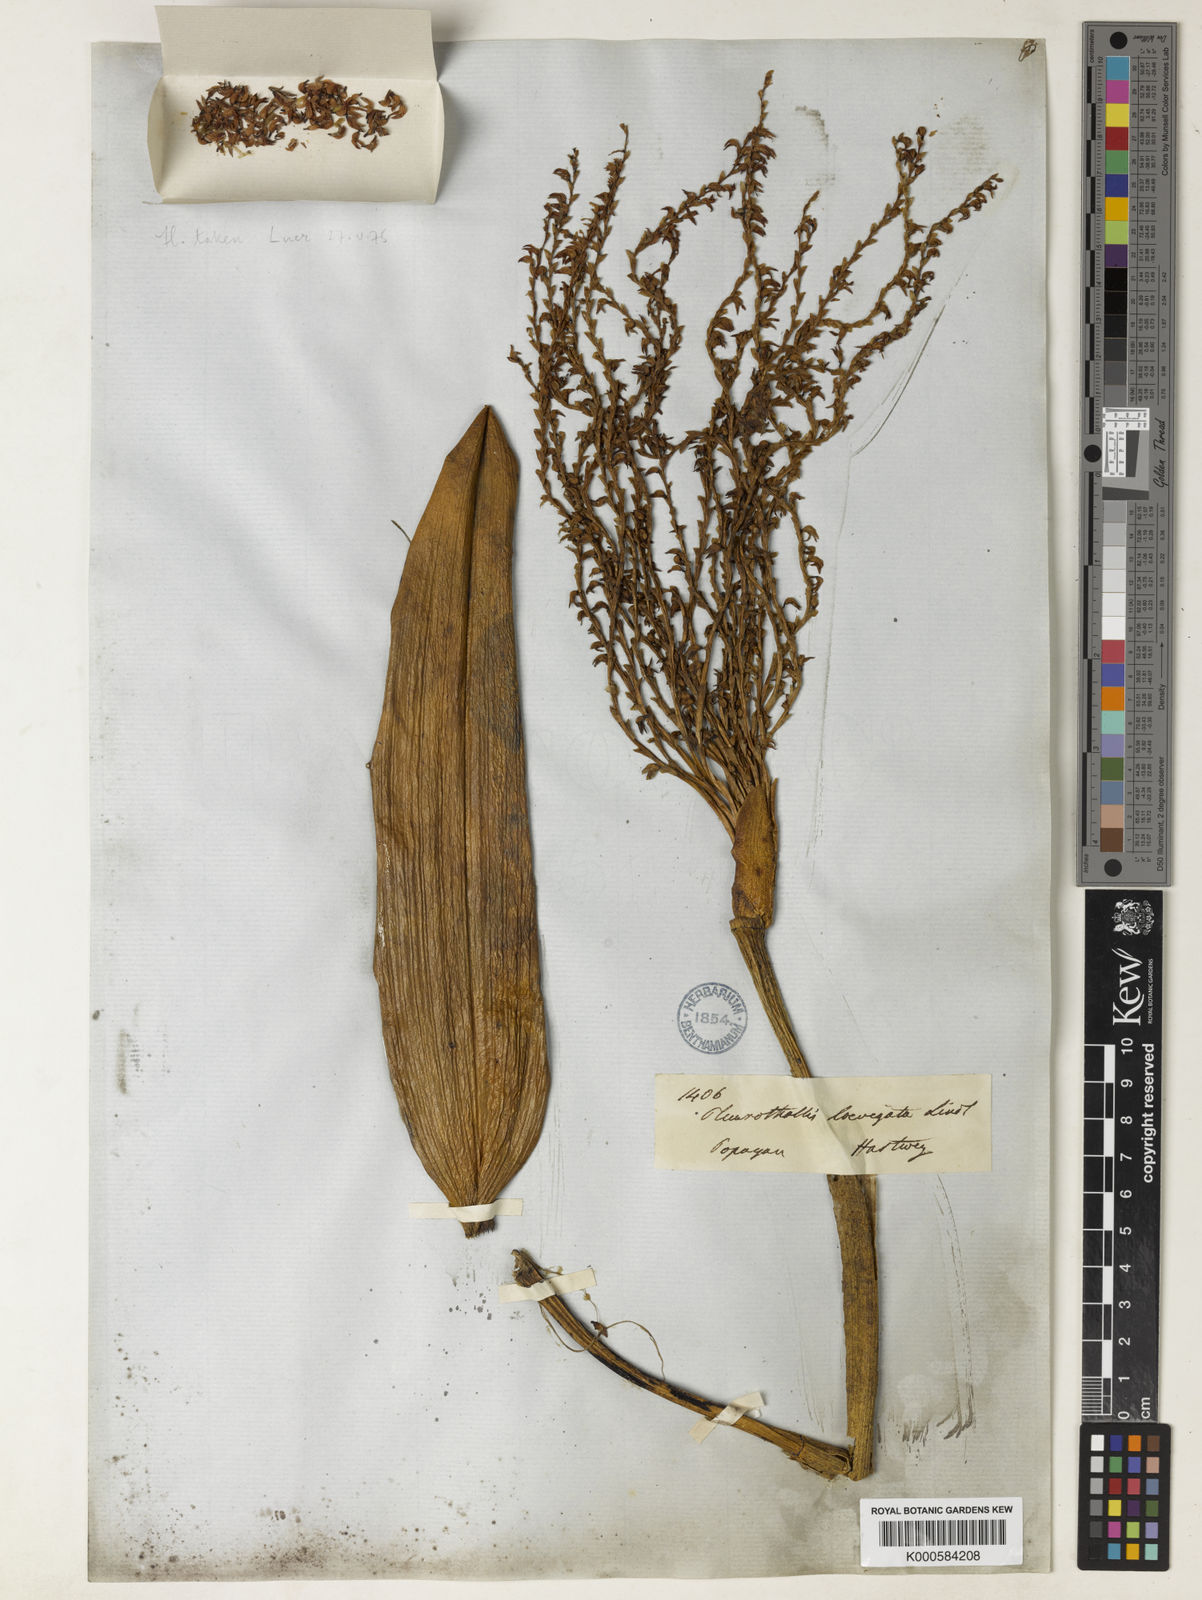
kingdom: Plantae
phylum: Tracheophyta
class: Liliopsida
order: Asparagales
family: Orchidaceae
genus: Stelis
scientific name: Stelis laevigata
